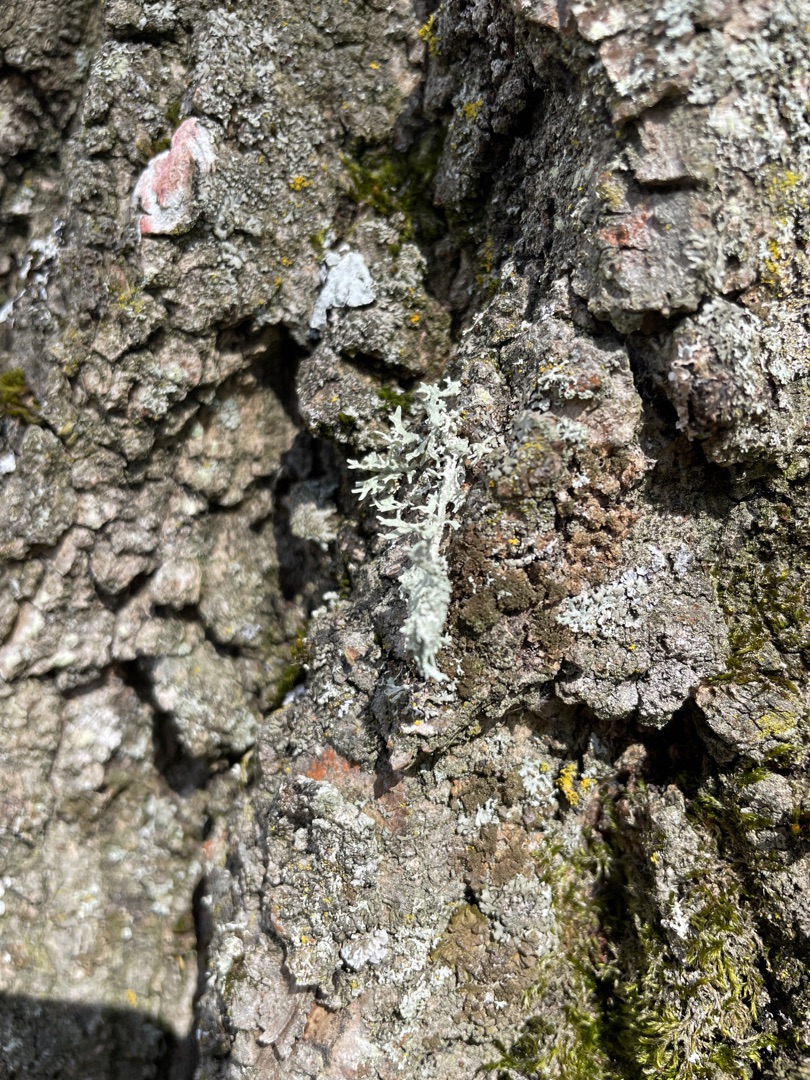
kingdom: Fungi
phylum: Ascomycota
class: Lecanoromycetes
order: Lecanorales
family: Parmeliaceae
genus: Evernia
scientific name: Evernia prunastri
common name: Almindelig slåenlav
